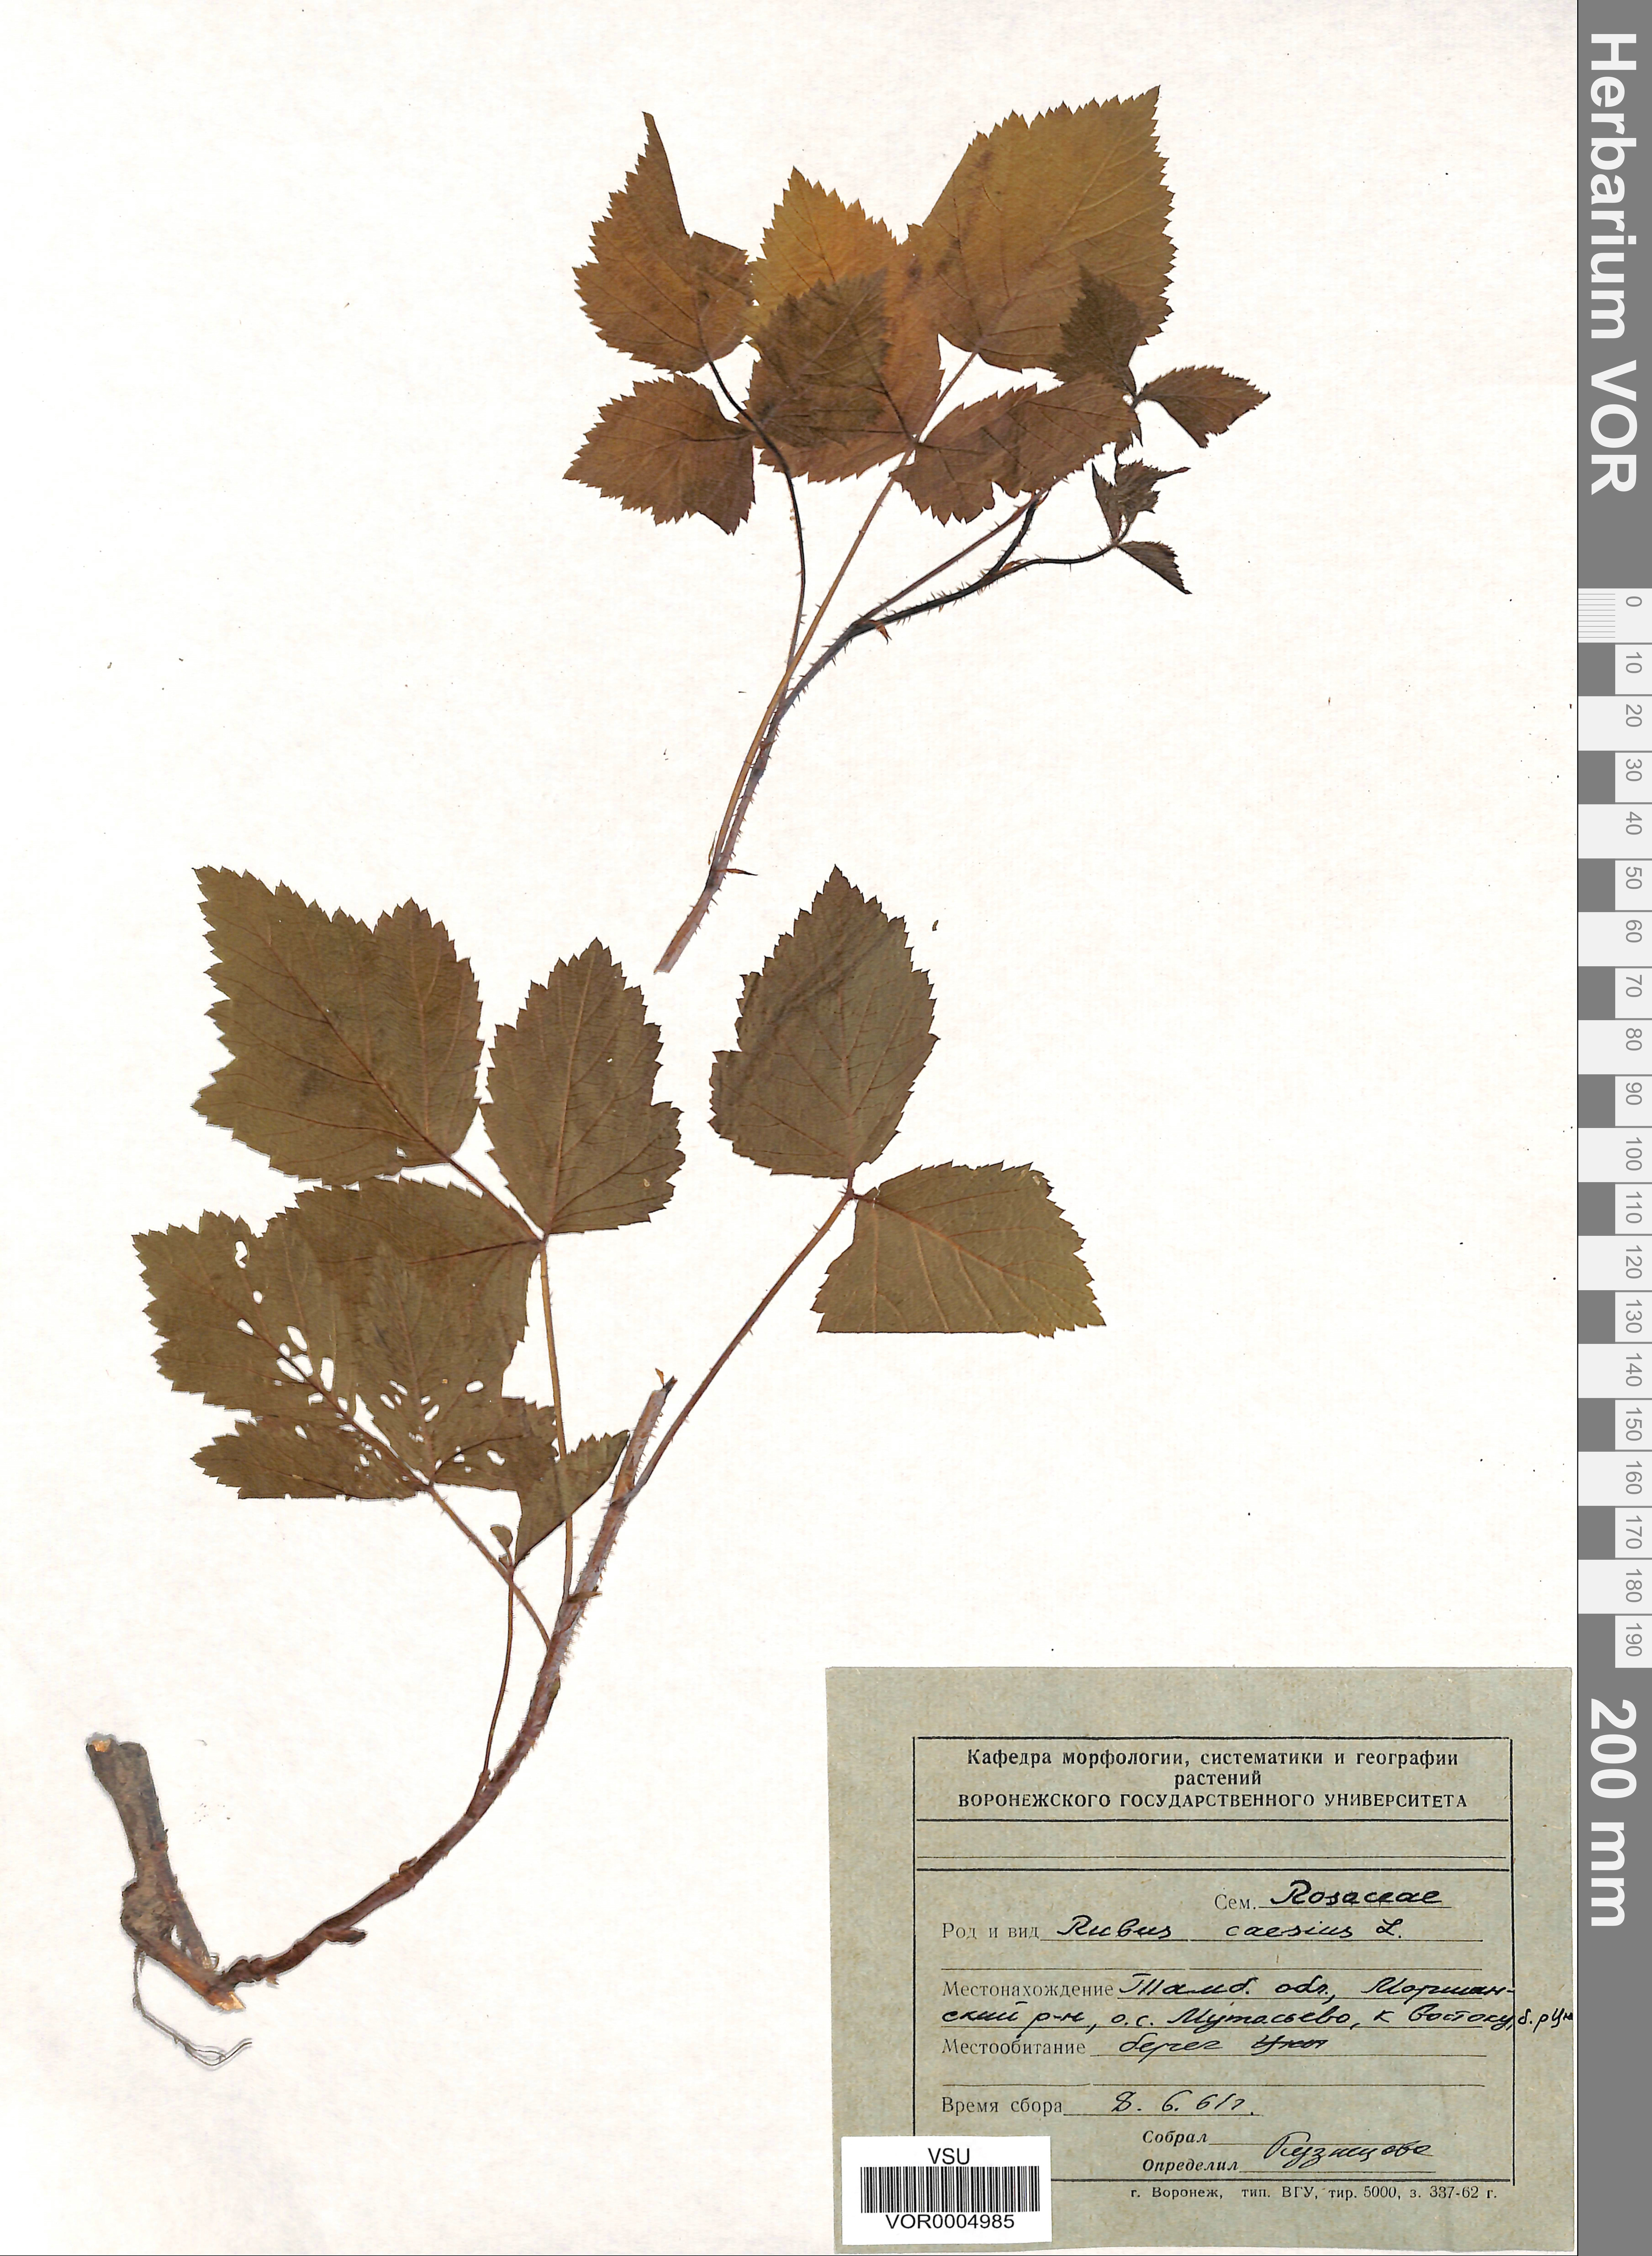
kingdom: Plantae
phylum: Tracheophyta
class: Magnoliopsida
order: Rosales
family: Rosaceae
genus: Rubus
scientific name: Rubus caesius
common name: Dewberry
